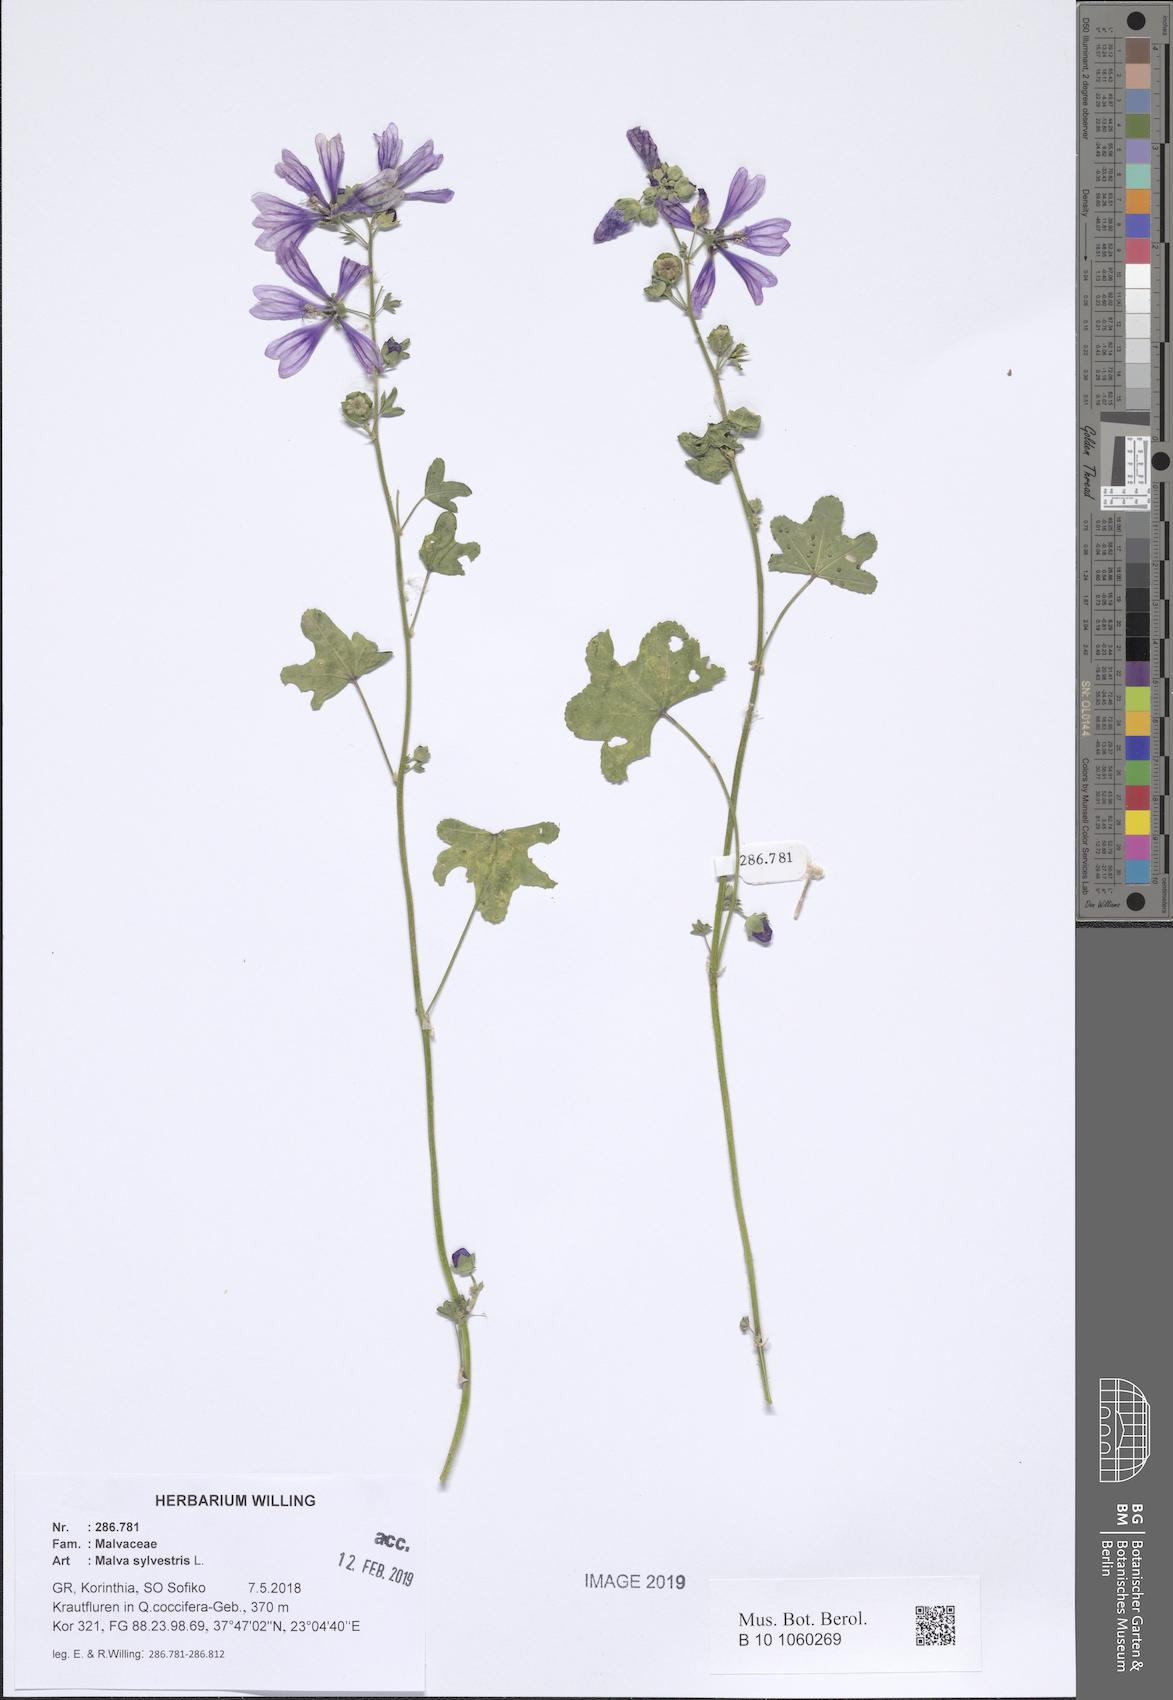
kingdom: Plantae
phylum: Tracheophyta
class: Magnoliopsida
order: Malvales
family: Malvaceae
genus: Malva
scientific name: Malva sylvestris
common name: Common mallow
